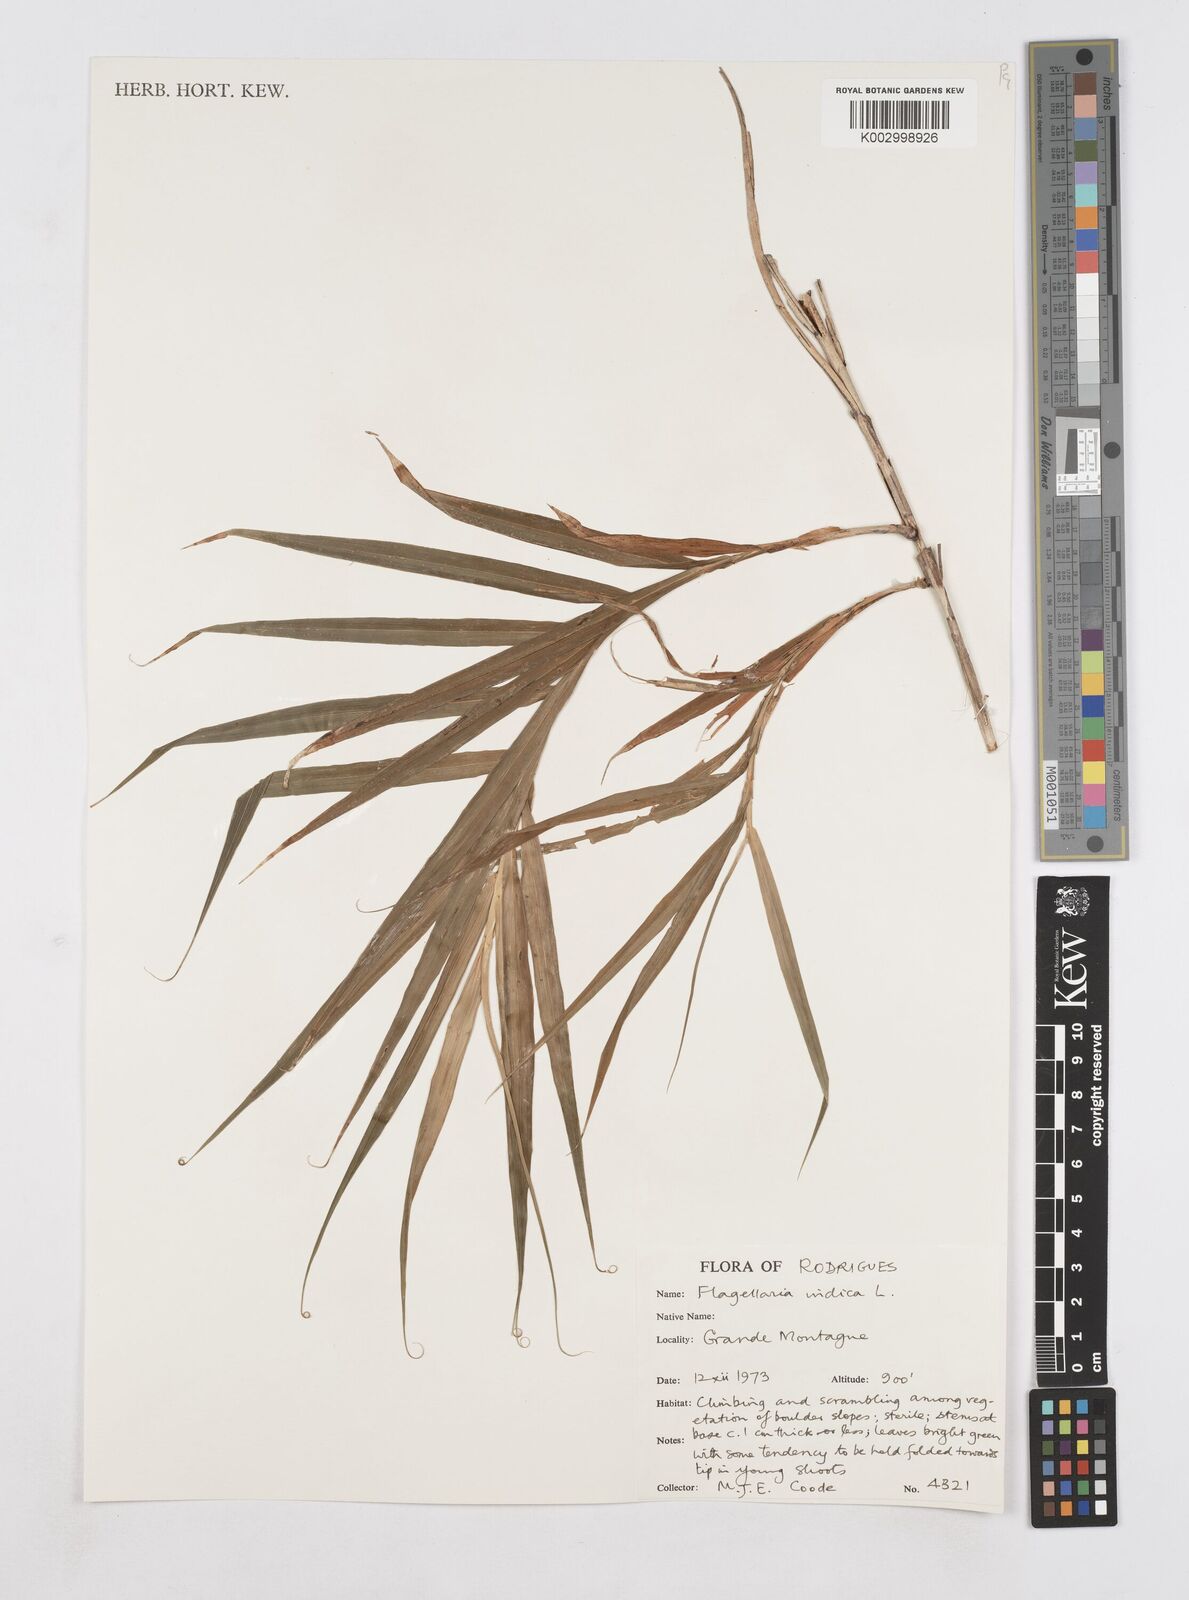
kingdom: Plantae
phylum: Tracheophyta
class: Liliopsida
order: Poales
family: Flagellariaceae
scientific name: Flagellariaceae
